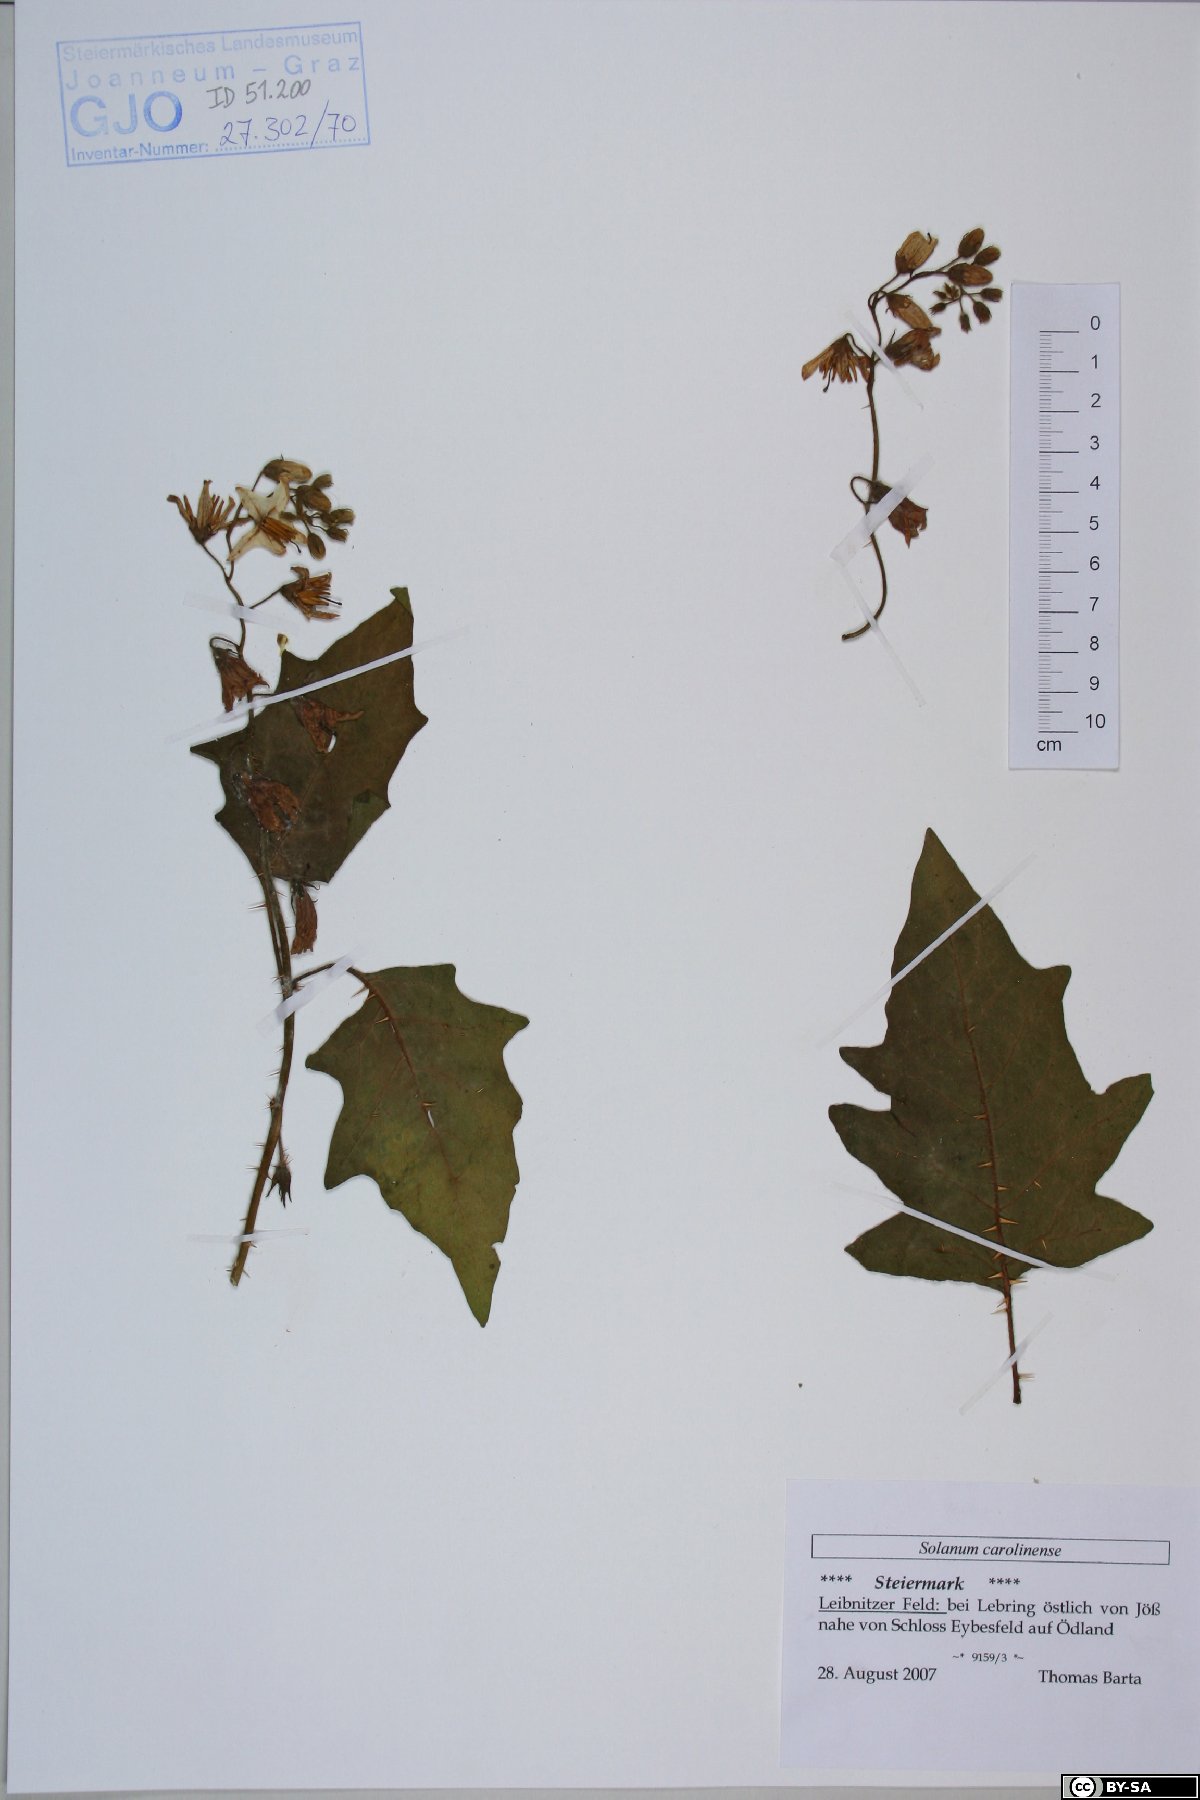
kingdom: Plantae
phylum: Tracheophyta
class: Magnoliopsida
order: Solanales
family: Solanaceae
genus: Solanum
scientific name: Solanum carolinense
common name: Horse-nettle
